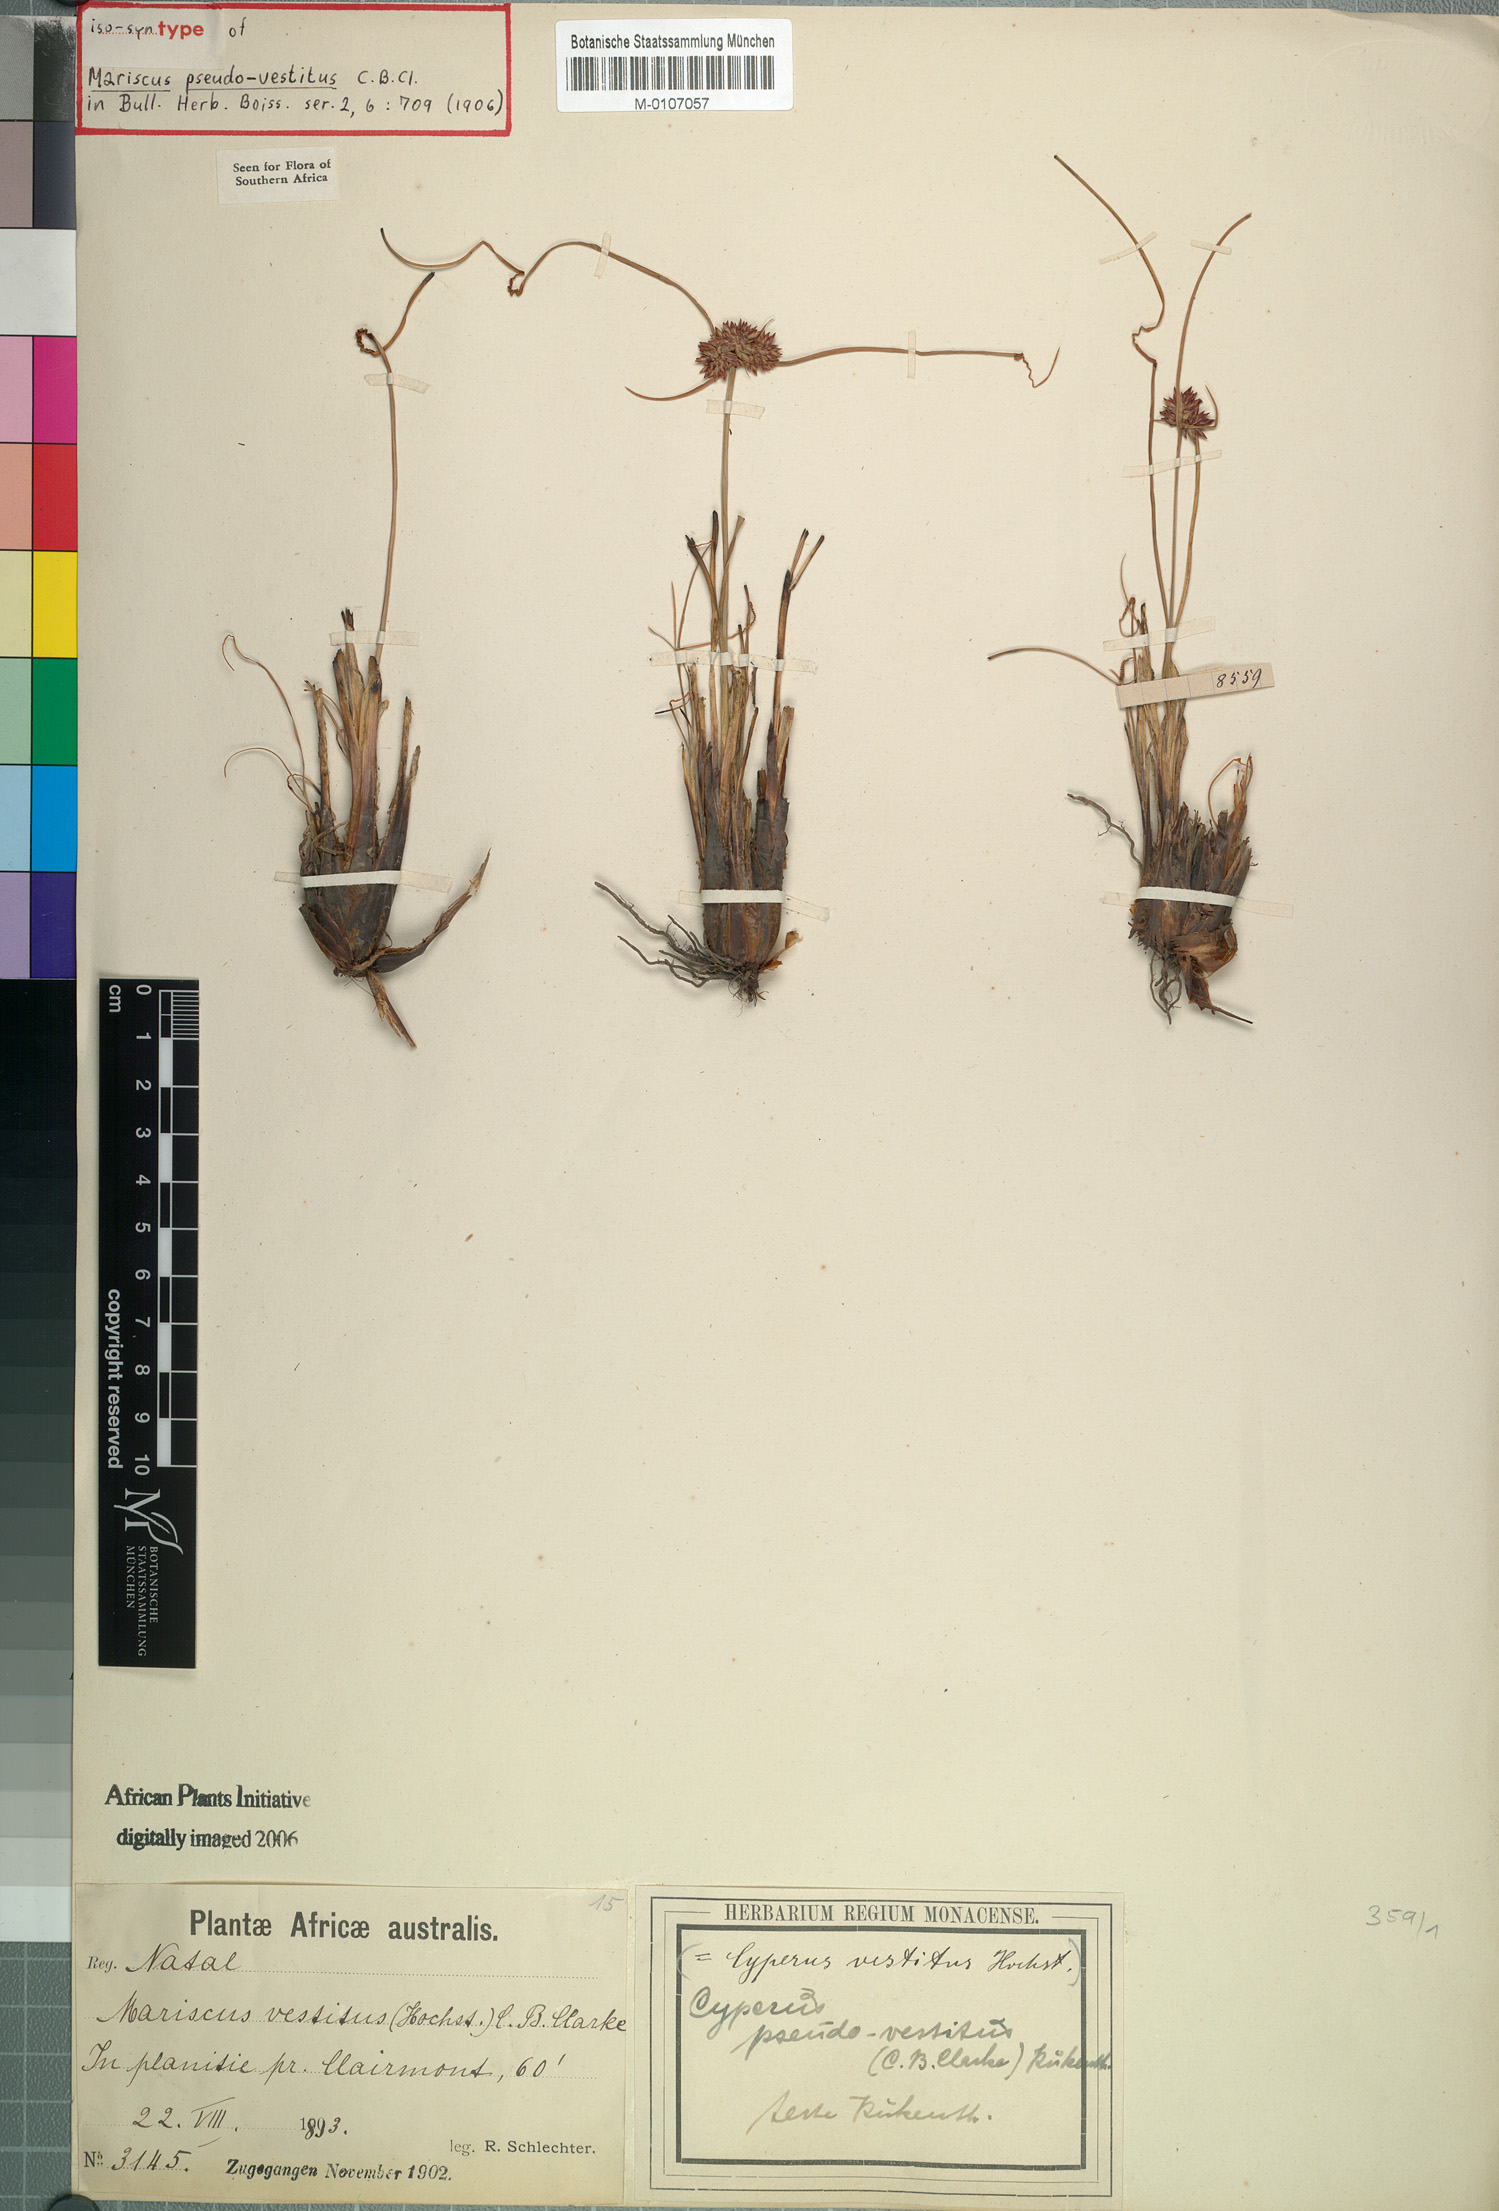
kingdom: Plantae
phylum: Tracheophyta
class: Liliopsida
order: Poales
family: Cyperaceae
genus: Cyperus
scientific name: Cyperus pseudovestitus
